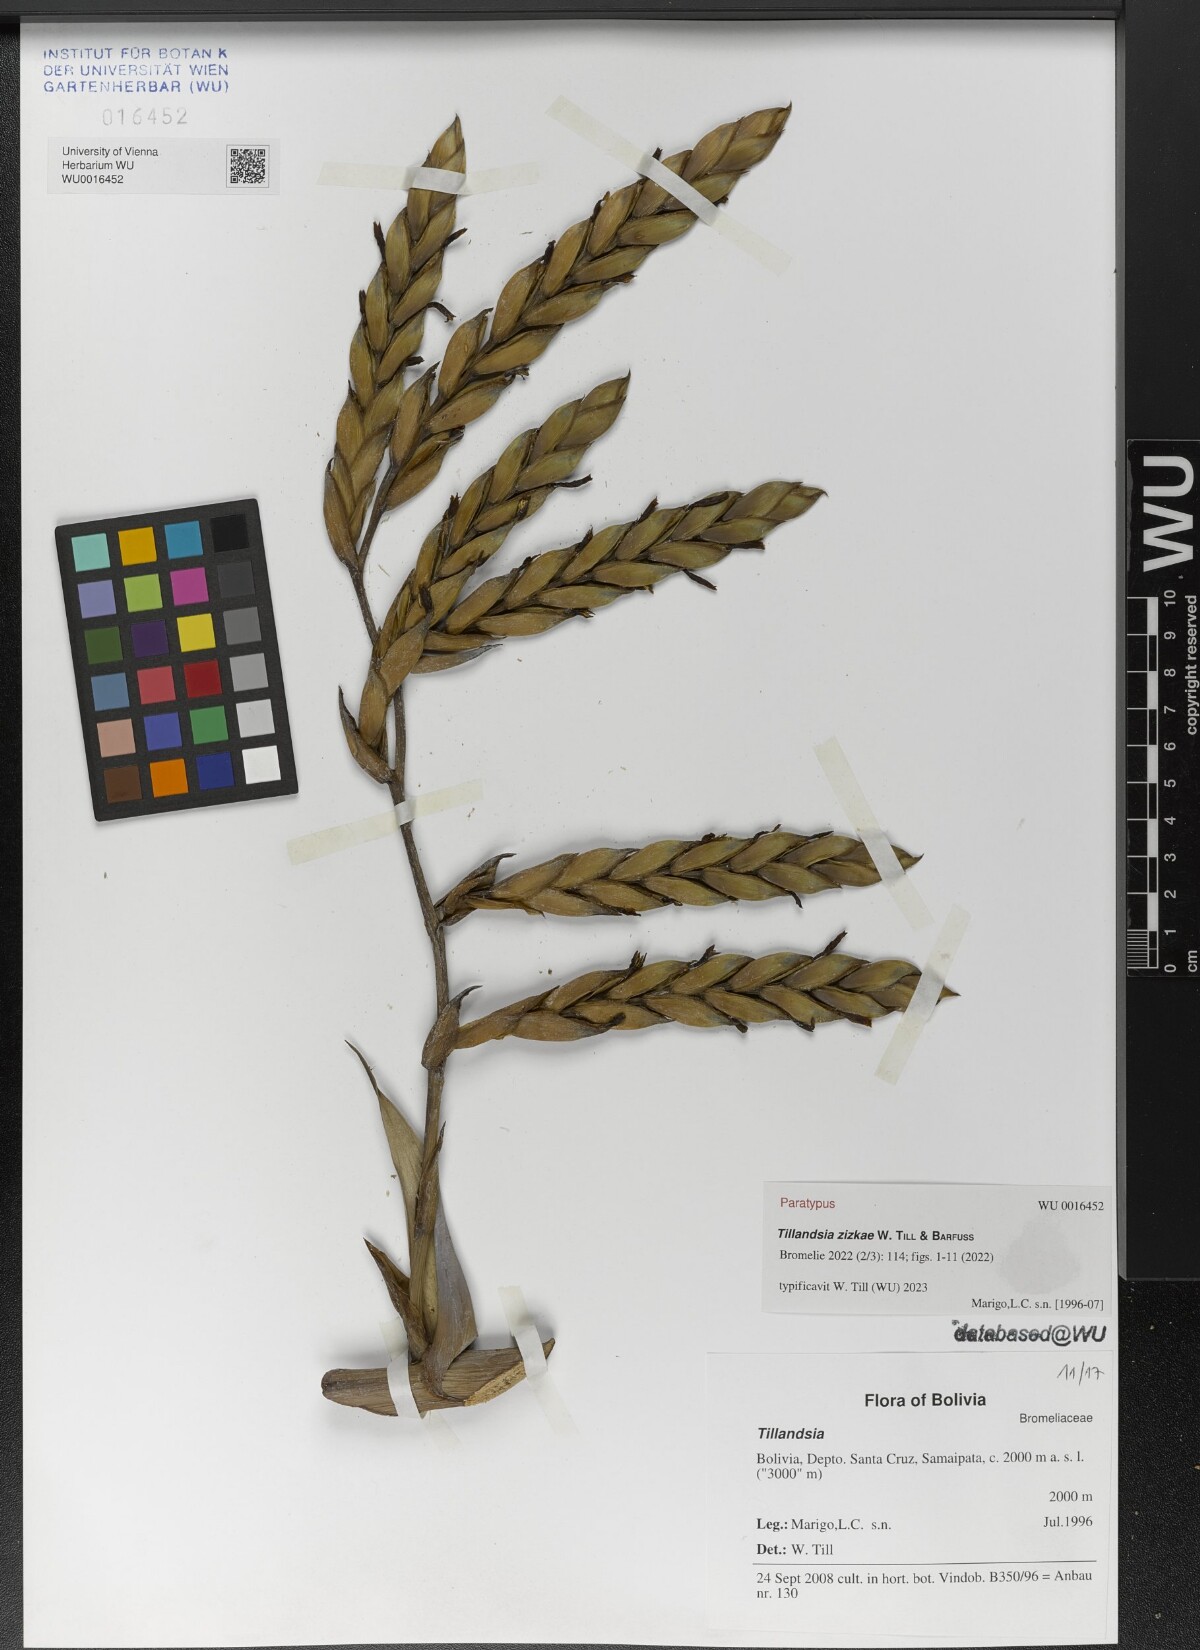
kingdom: Plantae
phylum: Tracheophyta
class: Liliopsida
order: Poales
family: Bromeliaceae
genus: Tillandsia
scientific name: Tillandsia
